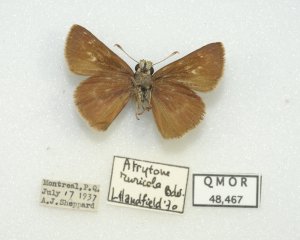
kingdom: Animalia
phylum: Arthropoda
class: Insecta
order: Lepidoptera
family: Hesperiidae
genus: Euphyes
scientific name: Euphyes vestris
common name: Dun Skipper
